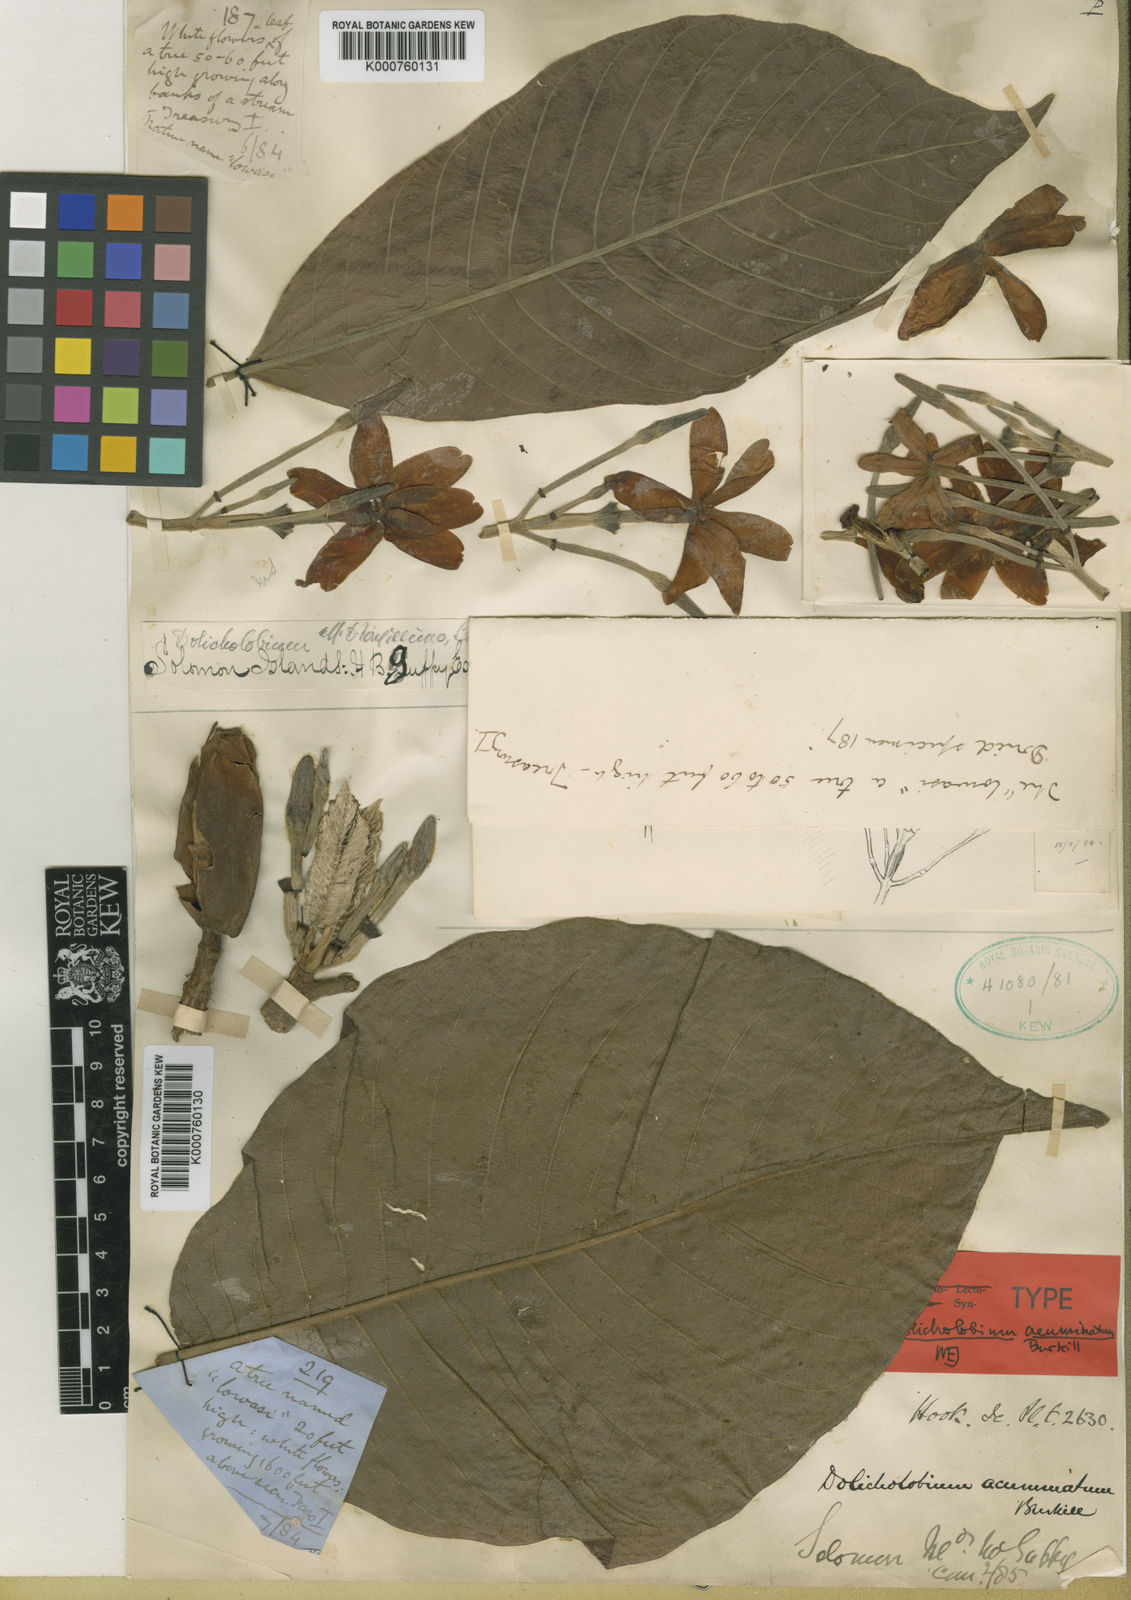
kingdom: Plantae
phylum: Tracheophyta
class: Magnoliopsida
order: Gentianales
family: Rubiaceae
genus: Dolicholobium
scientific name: Dolicholobium acuminatum
